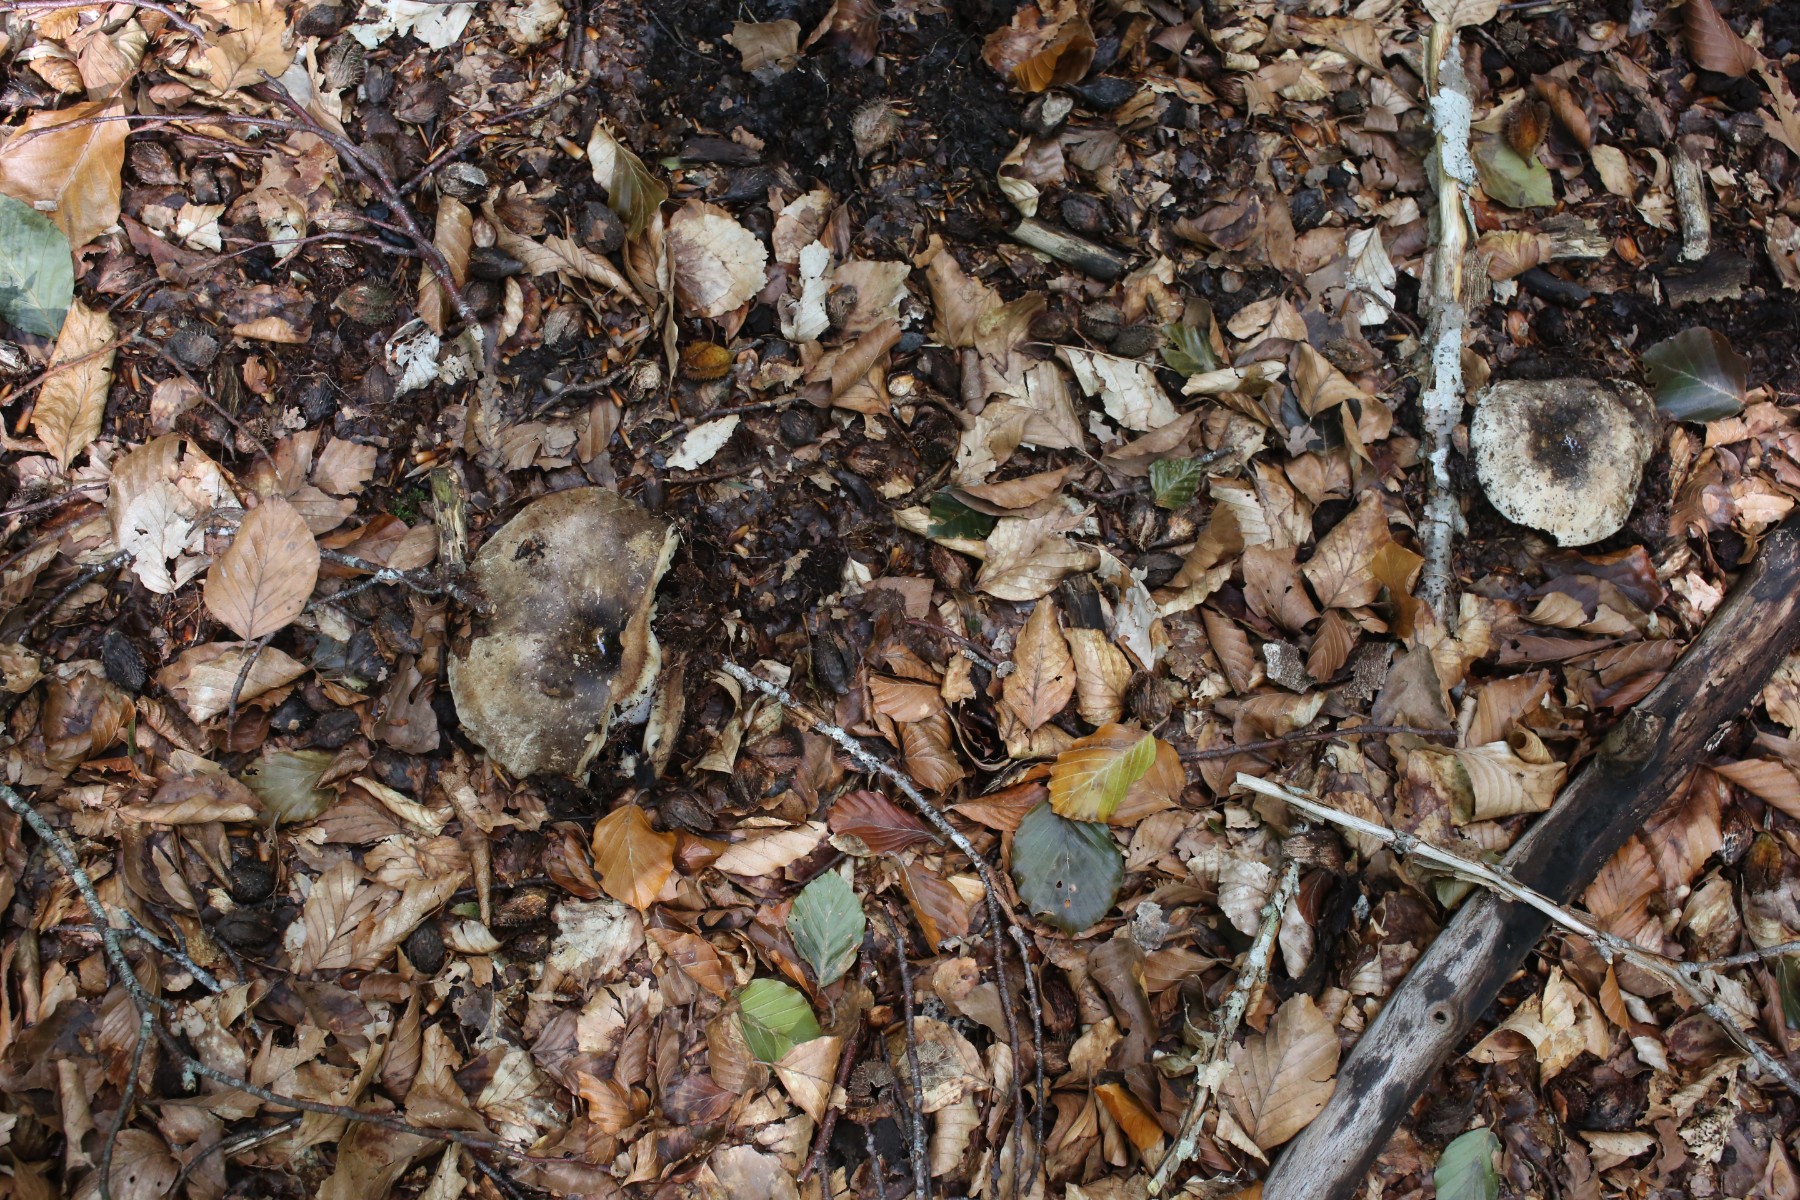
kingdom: Fungi
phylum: Basidiomycota
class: Agaricomycetes
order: Russulales
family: Russulaceae
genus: Russula
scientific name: Russula
